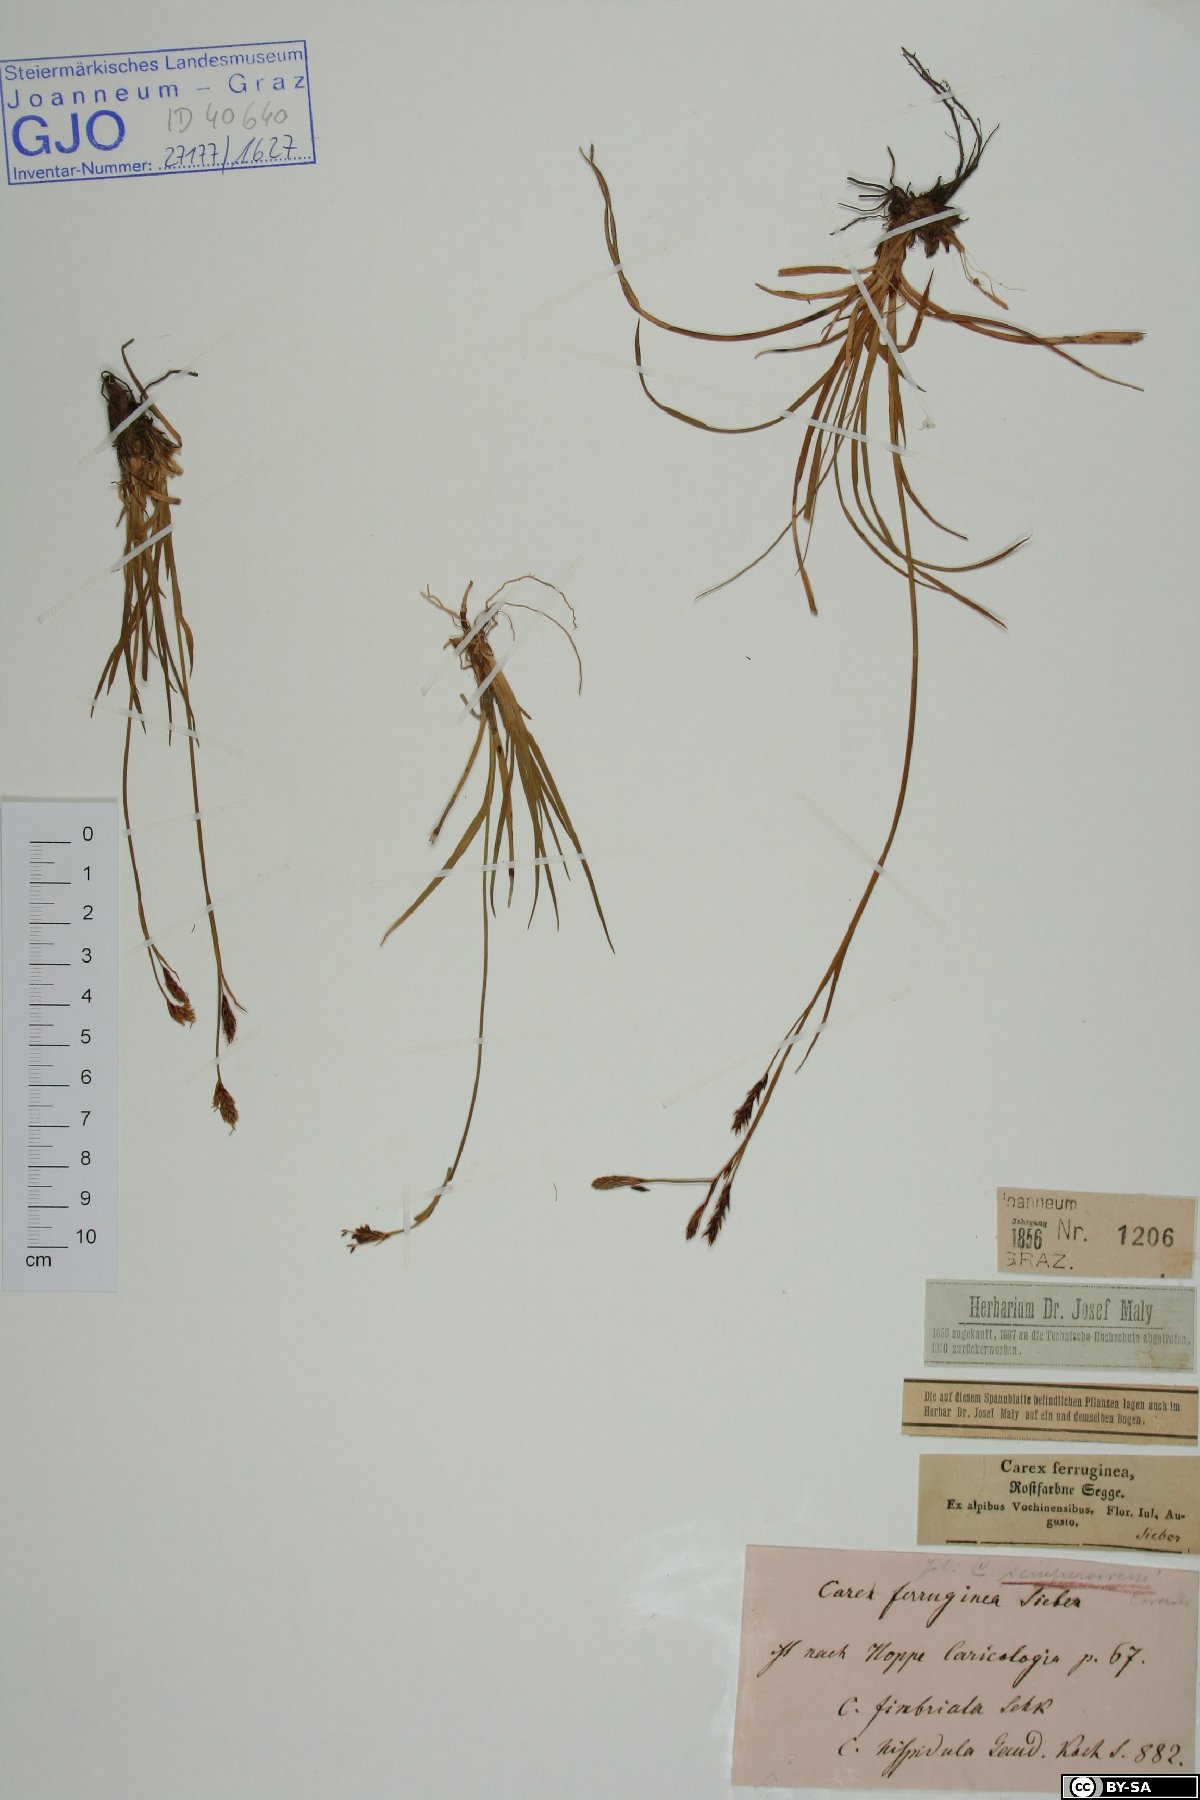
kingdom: Plantae
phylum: Tracheophyta
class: Liliopsida
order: Poales
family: Cyperaceae
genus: Carex
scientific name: Carex ferruginea
